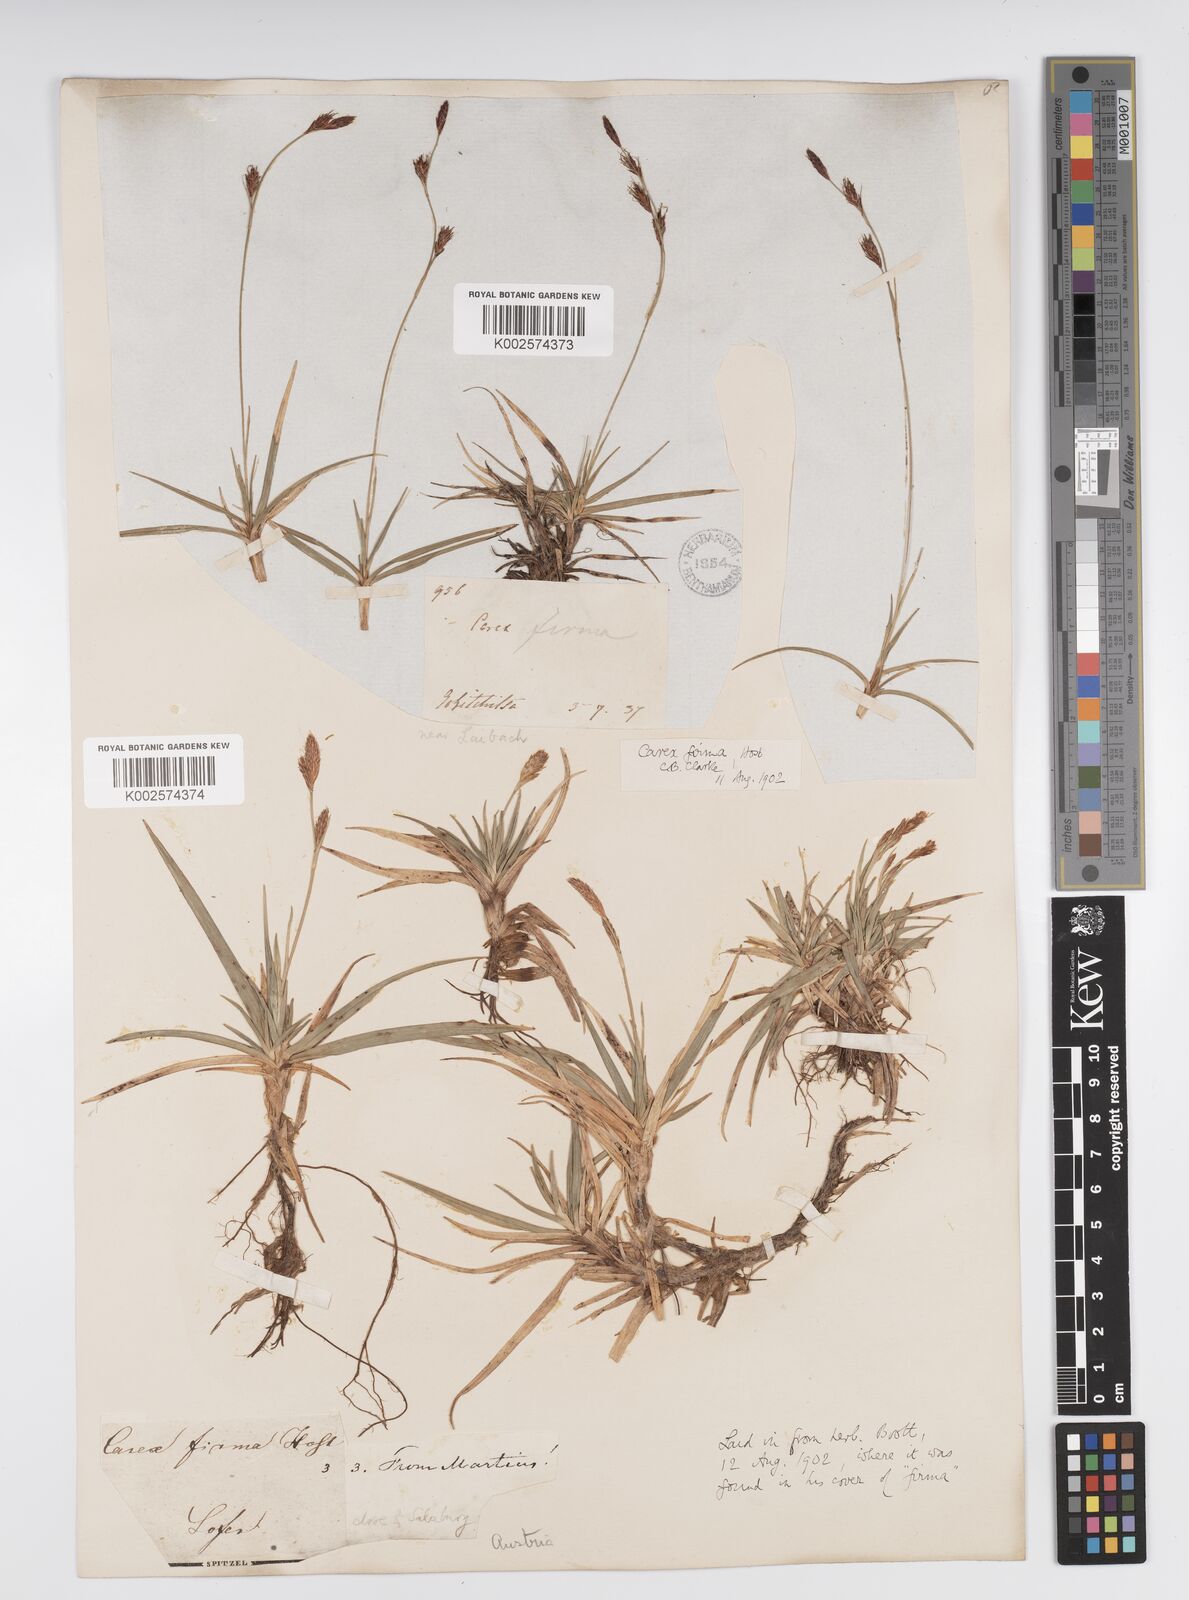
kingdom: Plantae
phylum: Tracheophyta
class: Liliopsida
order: Poales
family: Cyperaceae
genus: Carex
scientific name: Carex firma
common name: Dwarf pillow sedge
